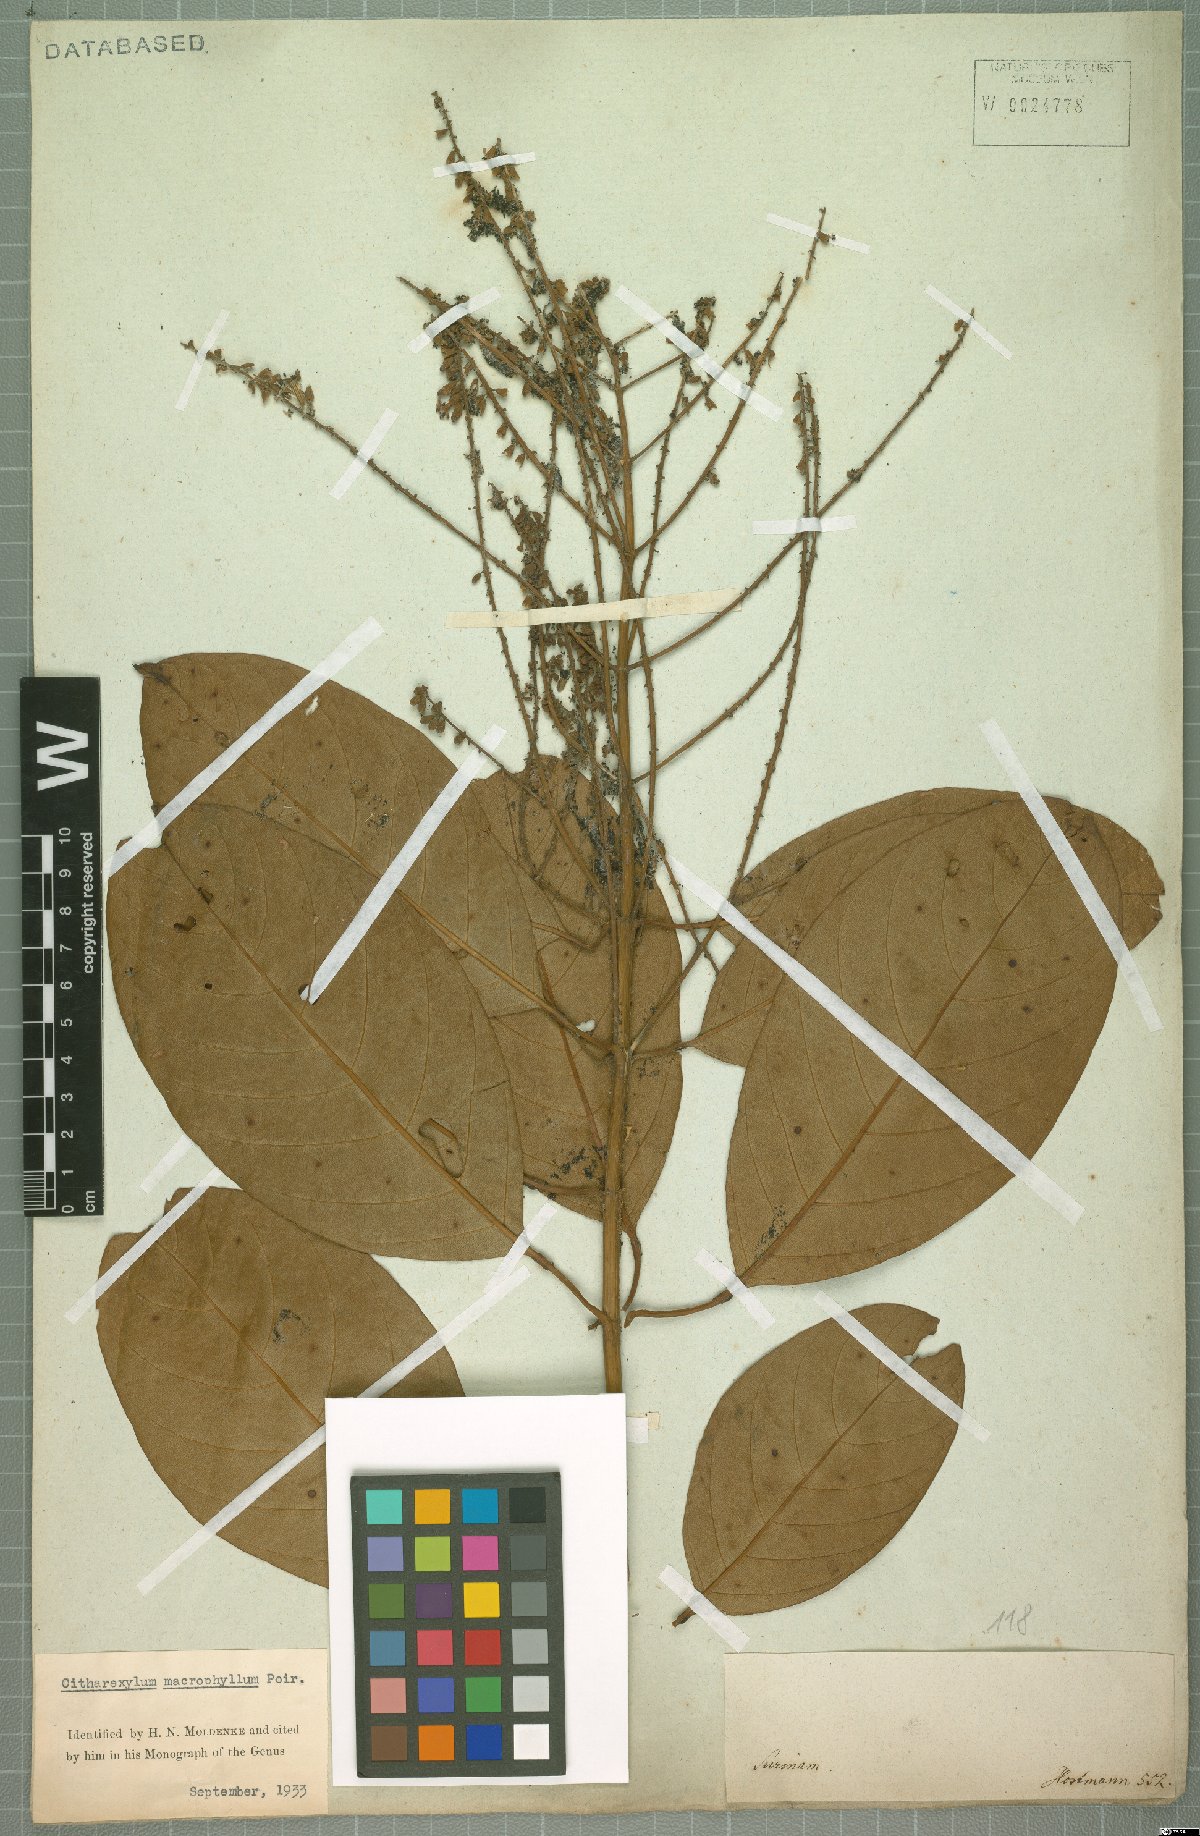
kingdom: Plantae
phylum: Tracheophyta
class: Magnoliopsida
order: Lamiales
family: Verbenaceae
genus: Citharexylum
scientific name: Citharexylum spinosum
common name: Fiddlewood
